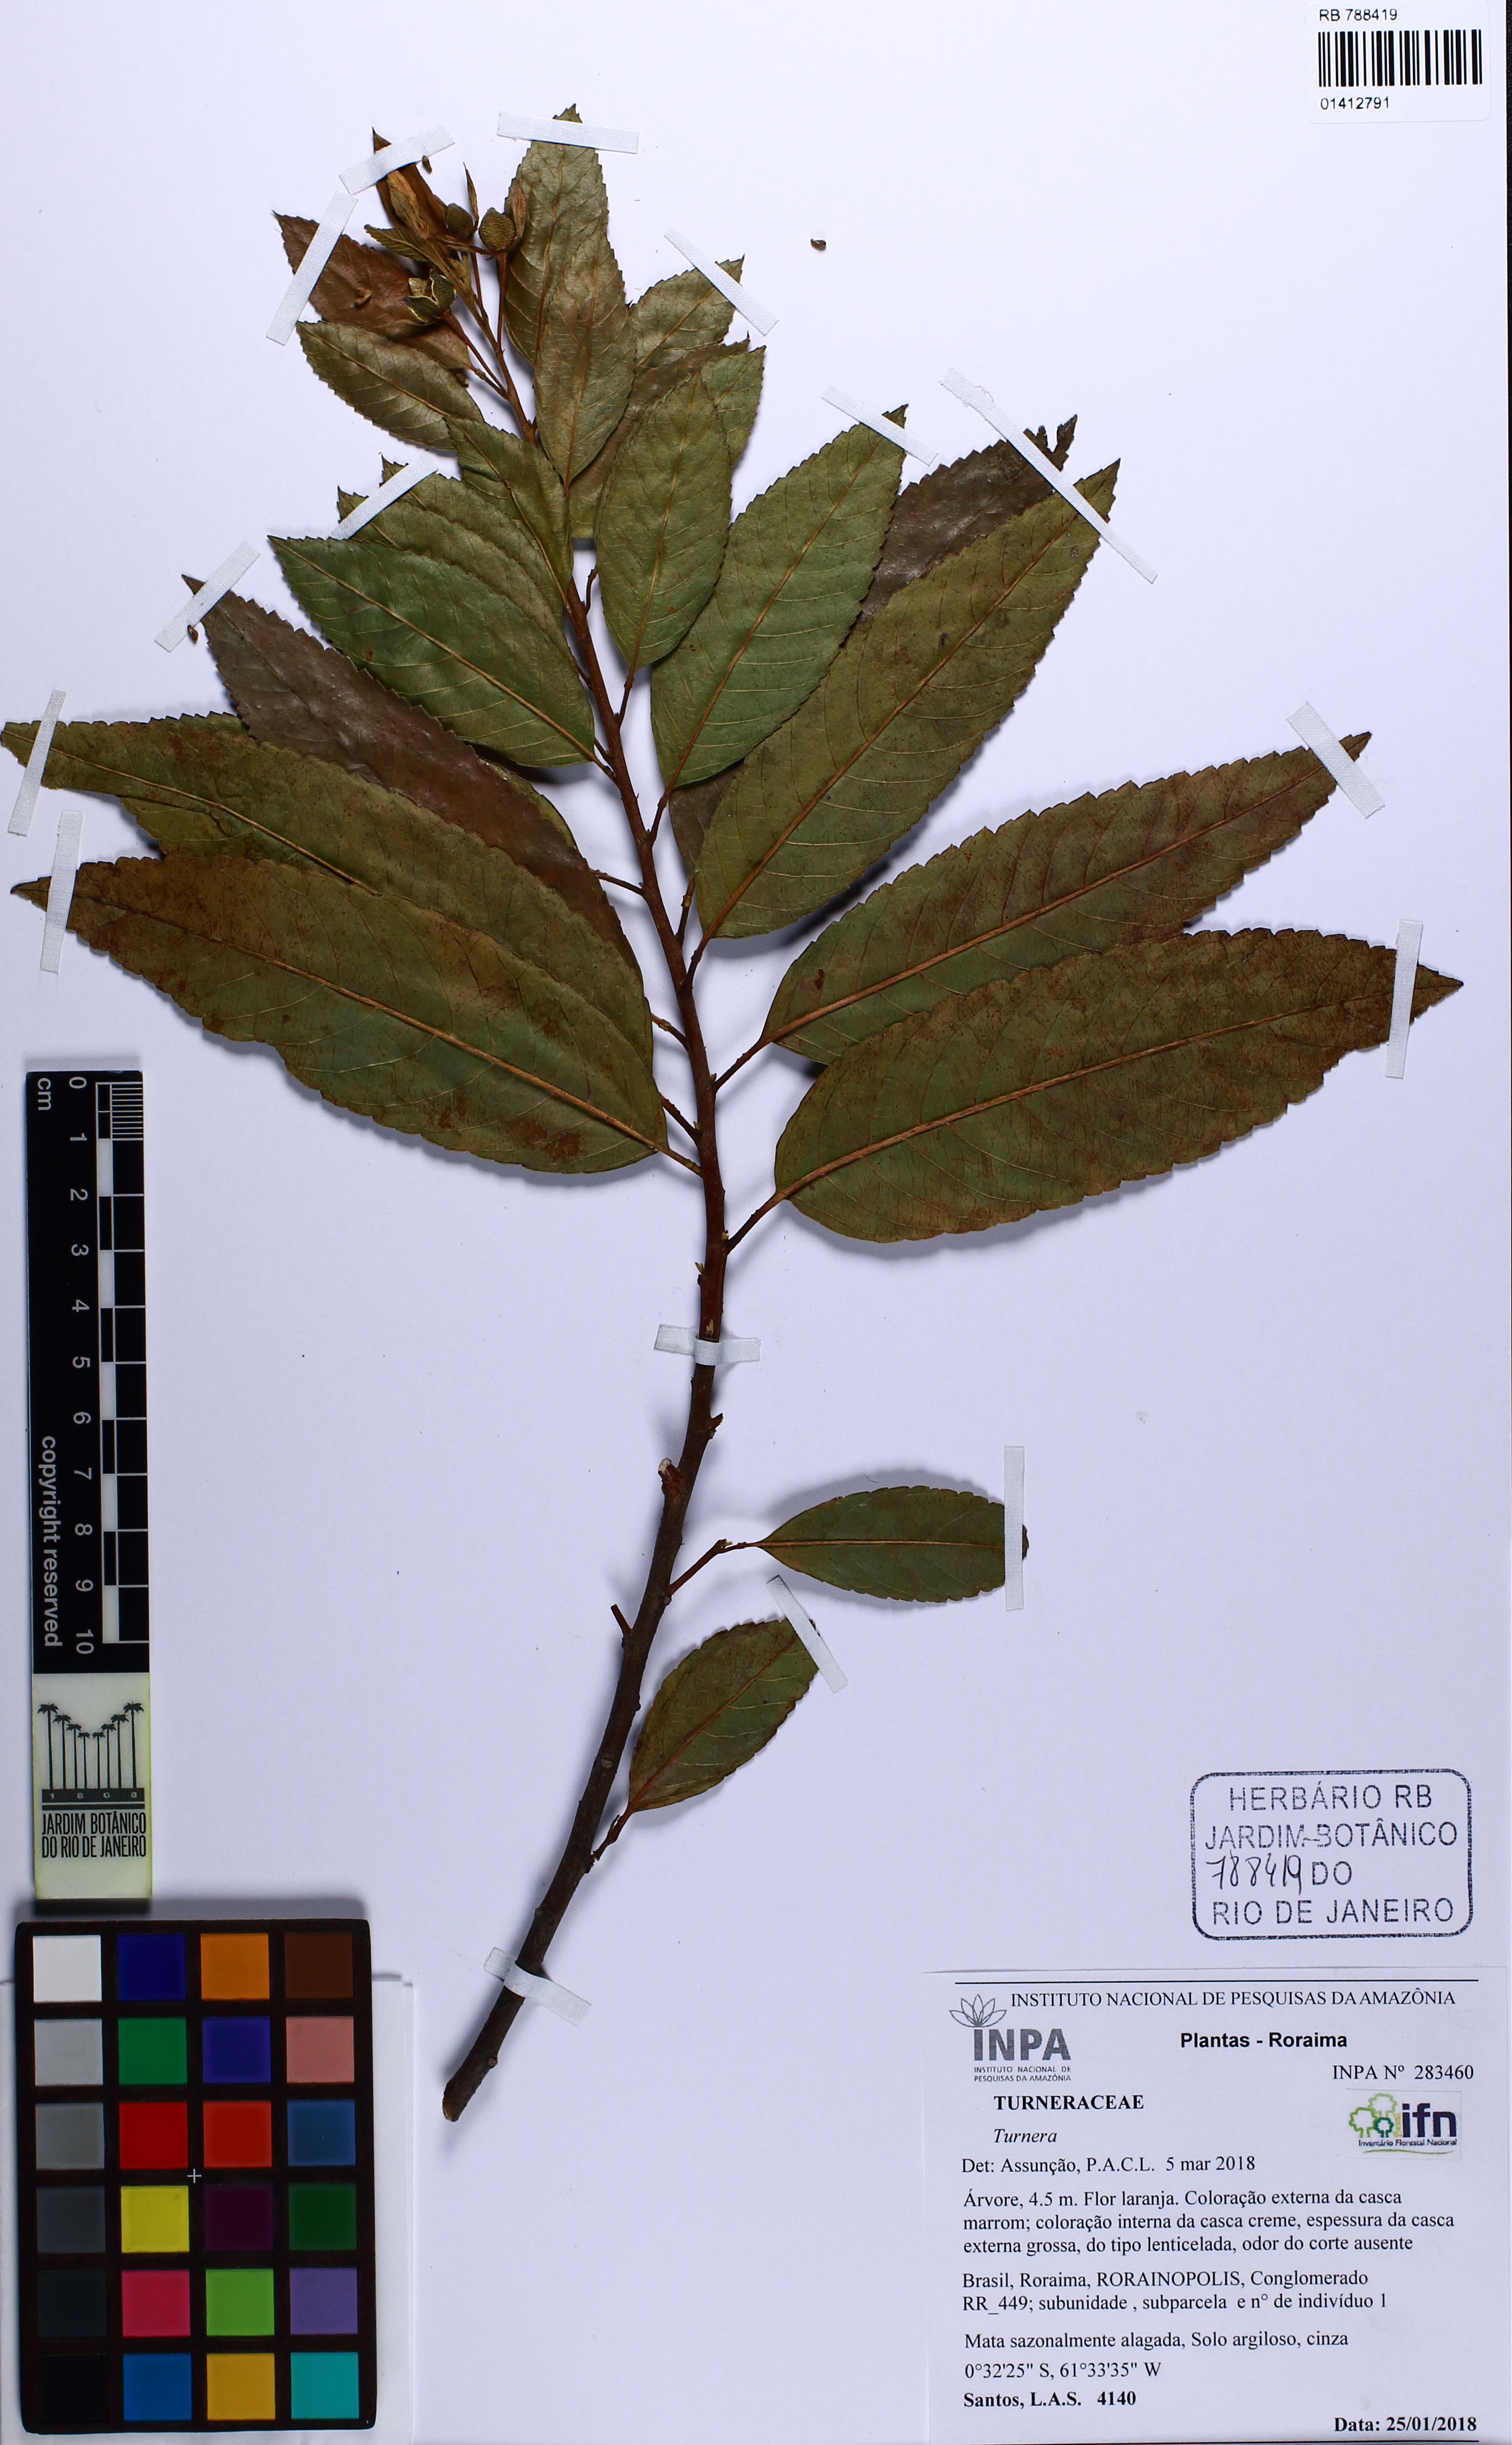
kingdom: Plantae
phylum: Tracheophyta
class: Magnoliopsida
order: Malpighiales
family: Turneraceae
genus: Turnera
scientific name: Turnera
